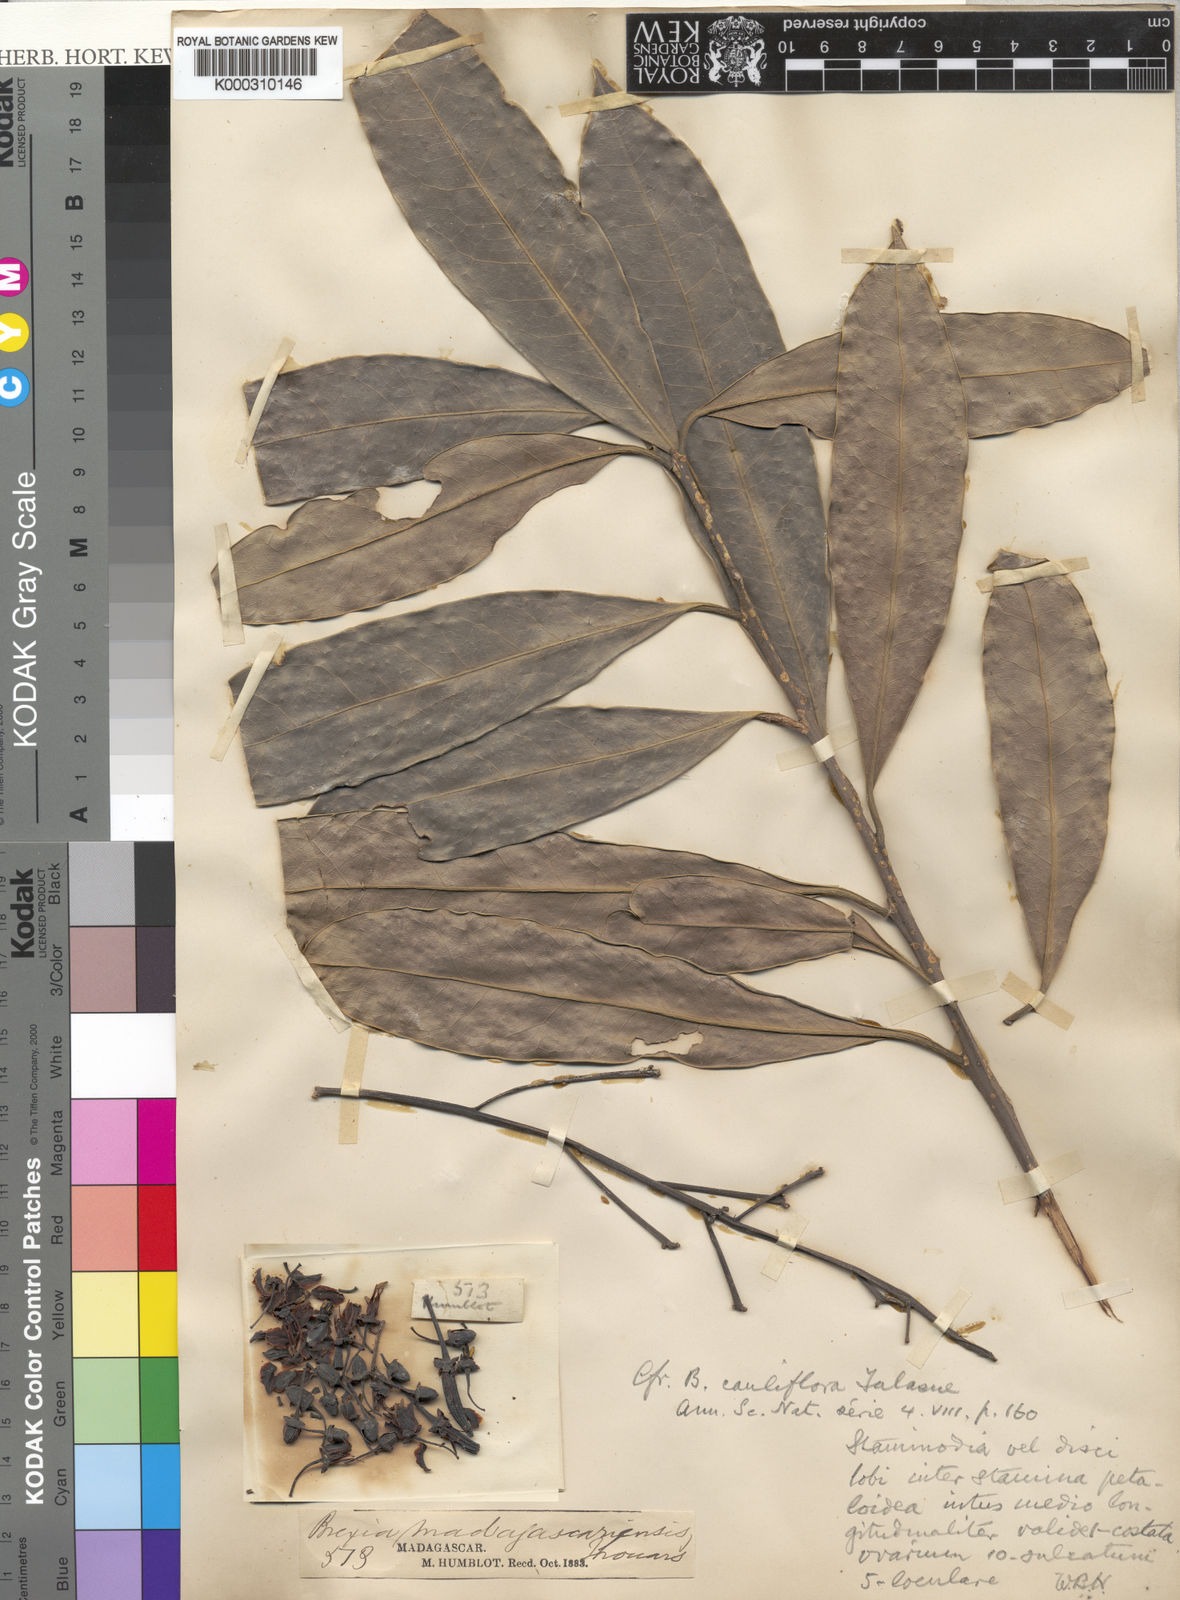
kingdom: Plantae
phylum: Tracheophyta
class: Magnoliopsida
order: Celastrales
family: Celastraceae
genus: Brexia
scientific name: Brexia
